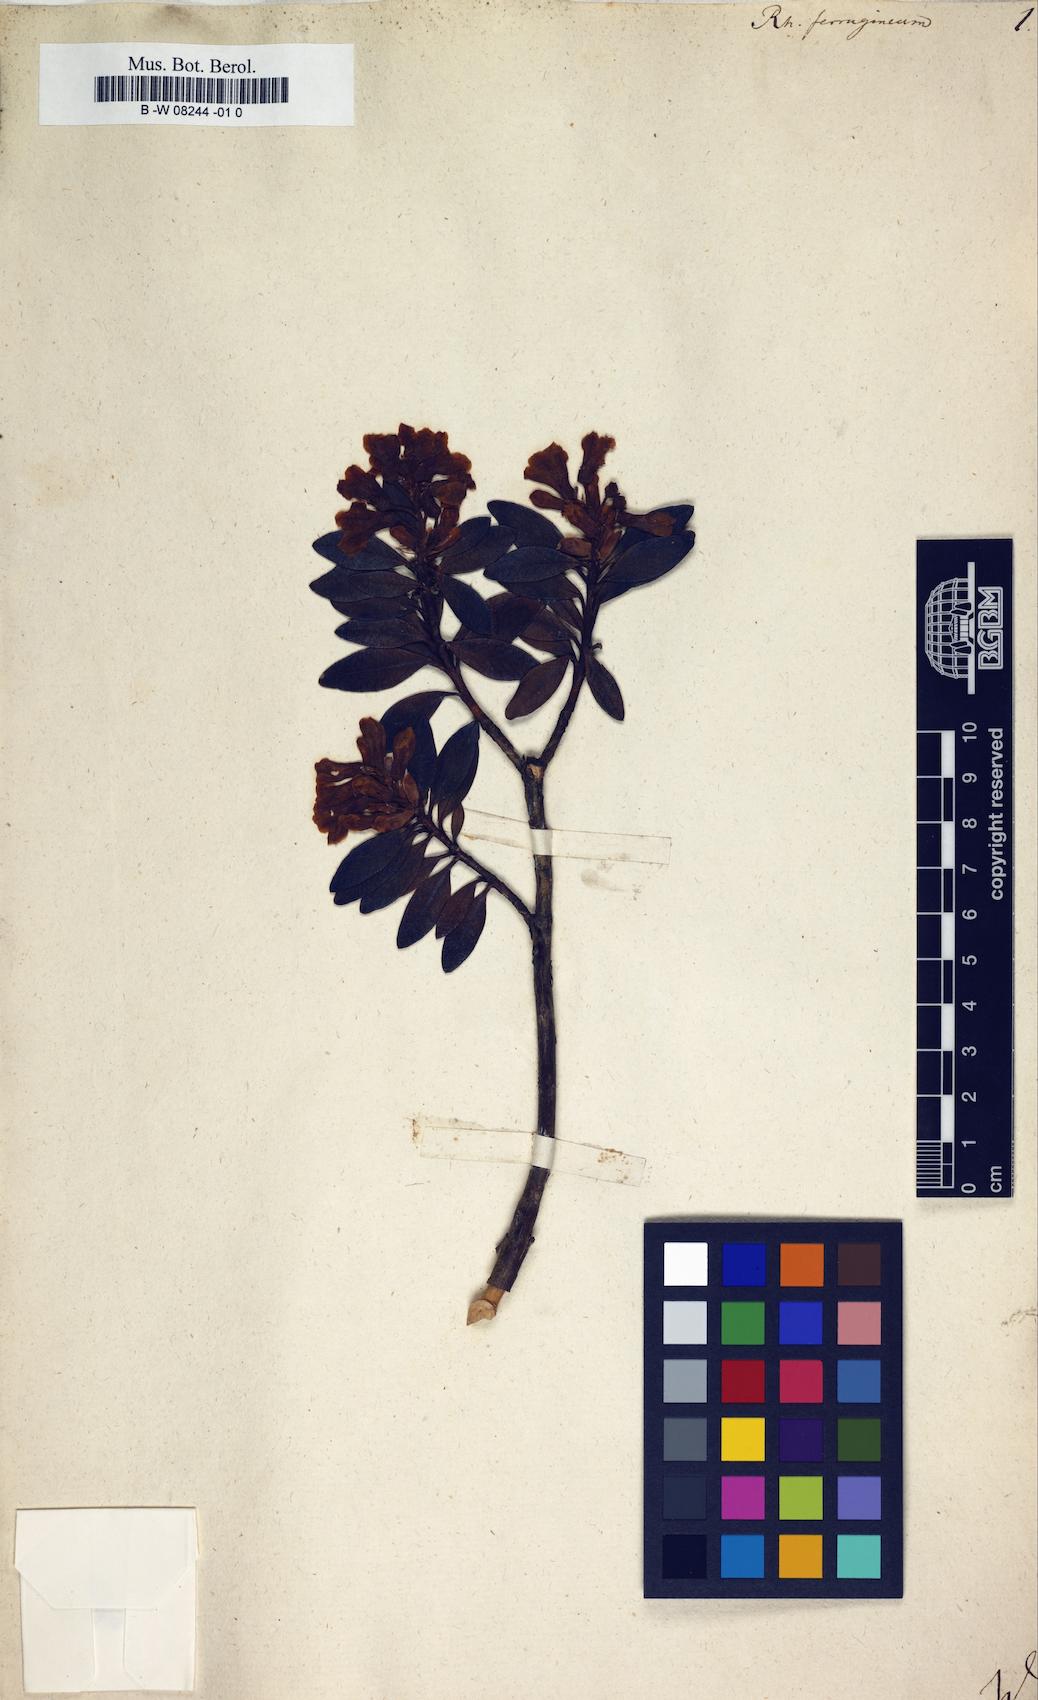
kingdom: Plantae
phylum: Tracheophyta
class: Magnoliopsida
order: Ericales
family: Ericaceae
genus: Rhododendron
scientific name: Rhododendron ferrugineum
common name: Alpenrose
